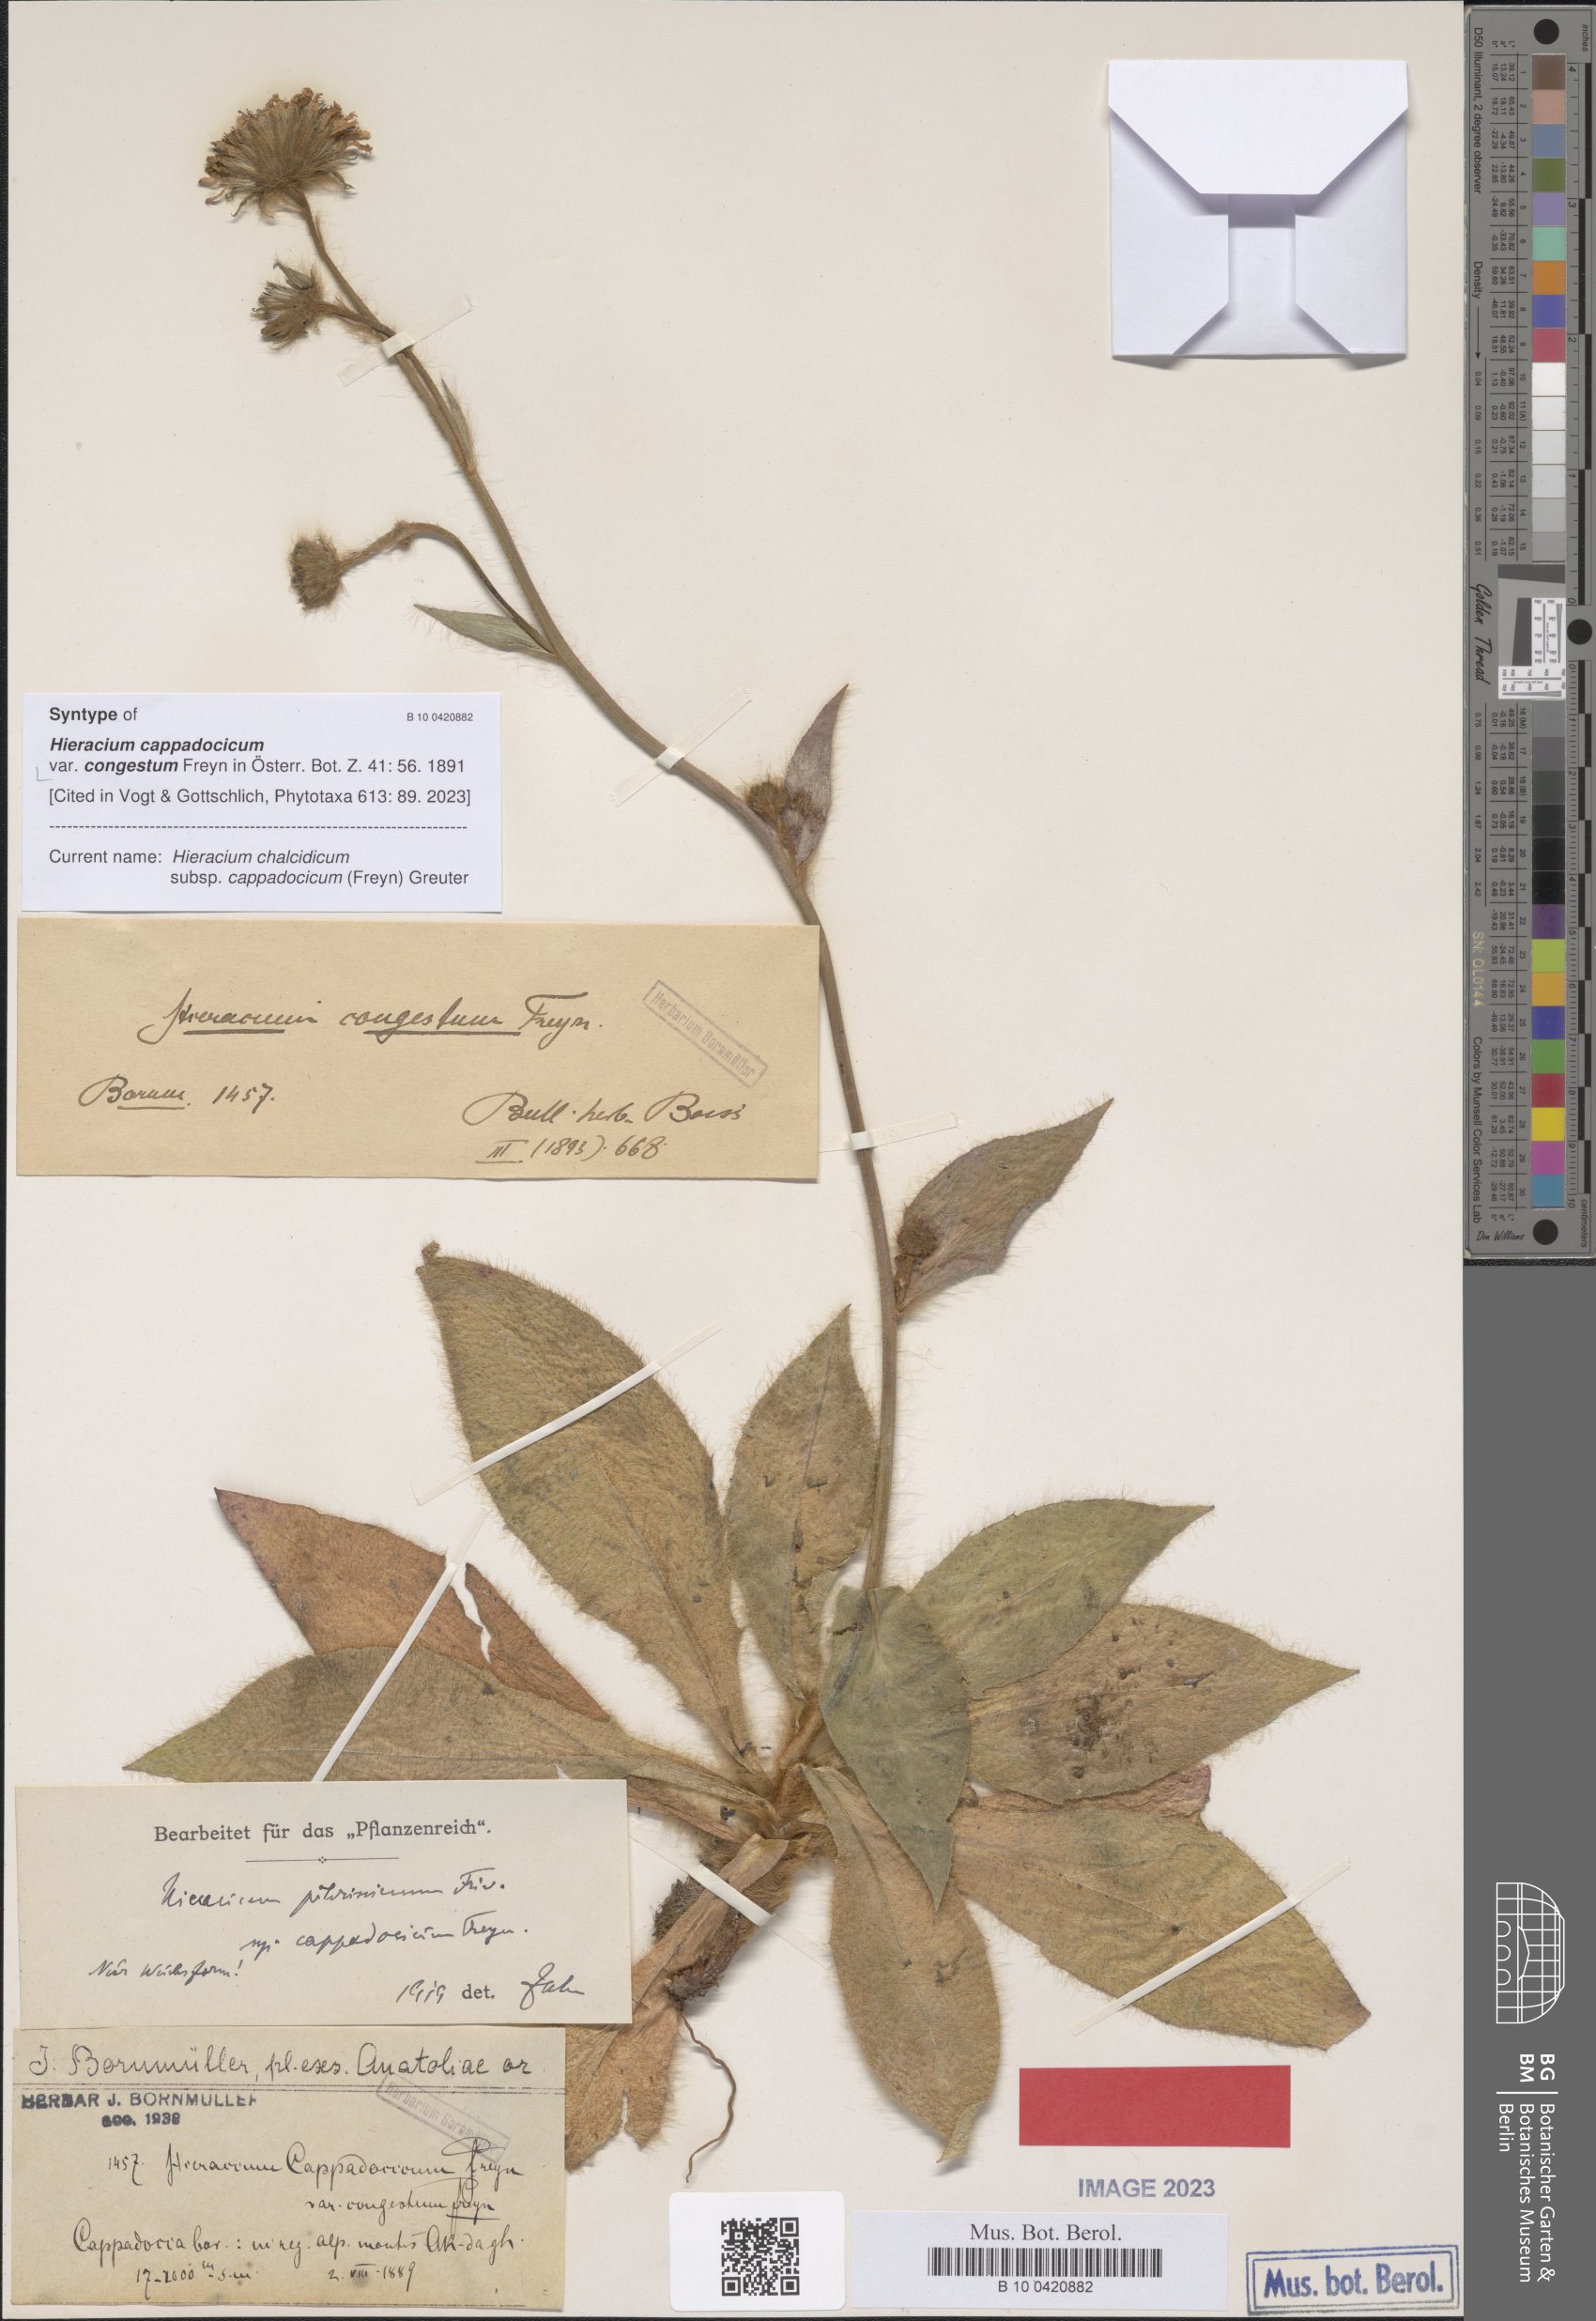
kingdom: Plantae
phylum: Tracheophyta
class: Magnoliopsida
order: Asterales
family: Asteraceae
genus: Hieracium
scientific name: Hieracium chalcidicum
